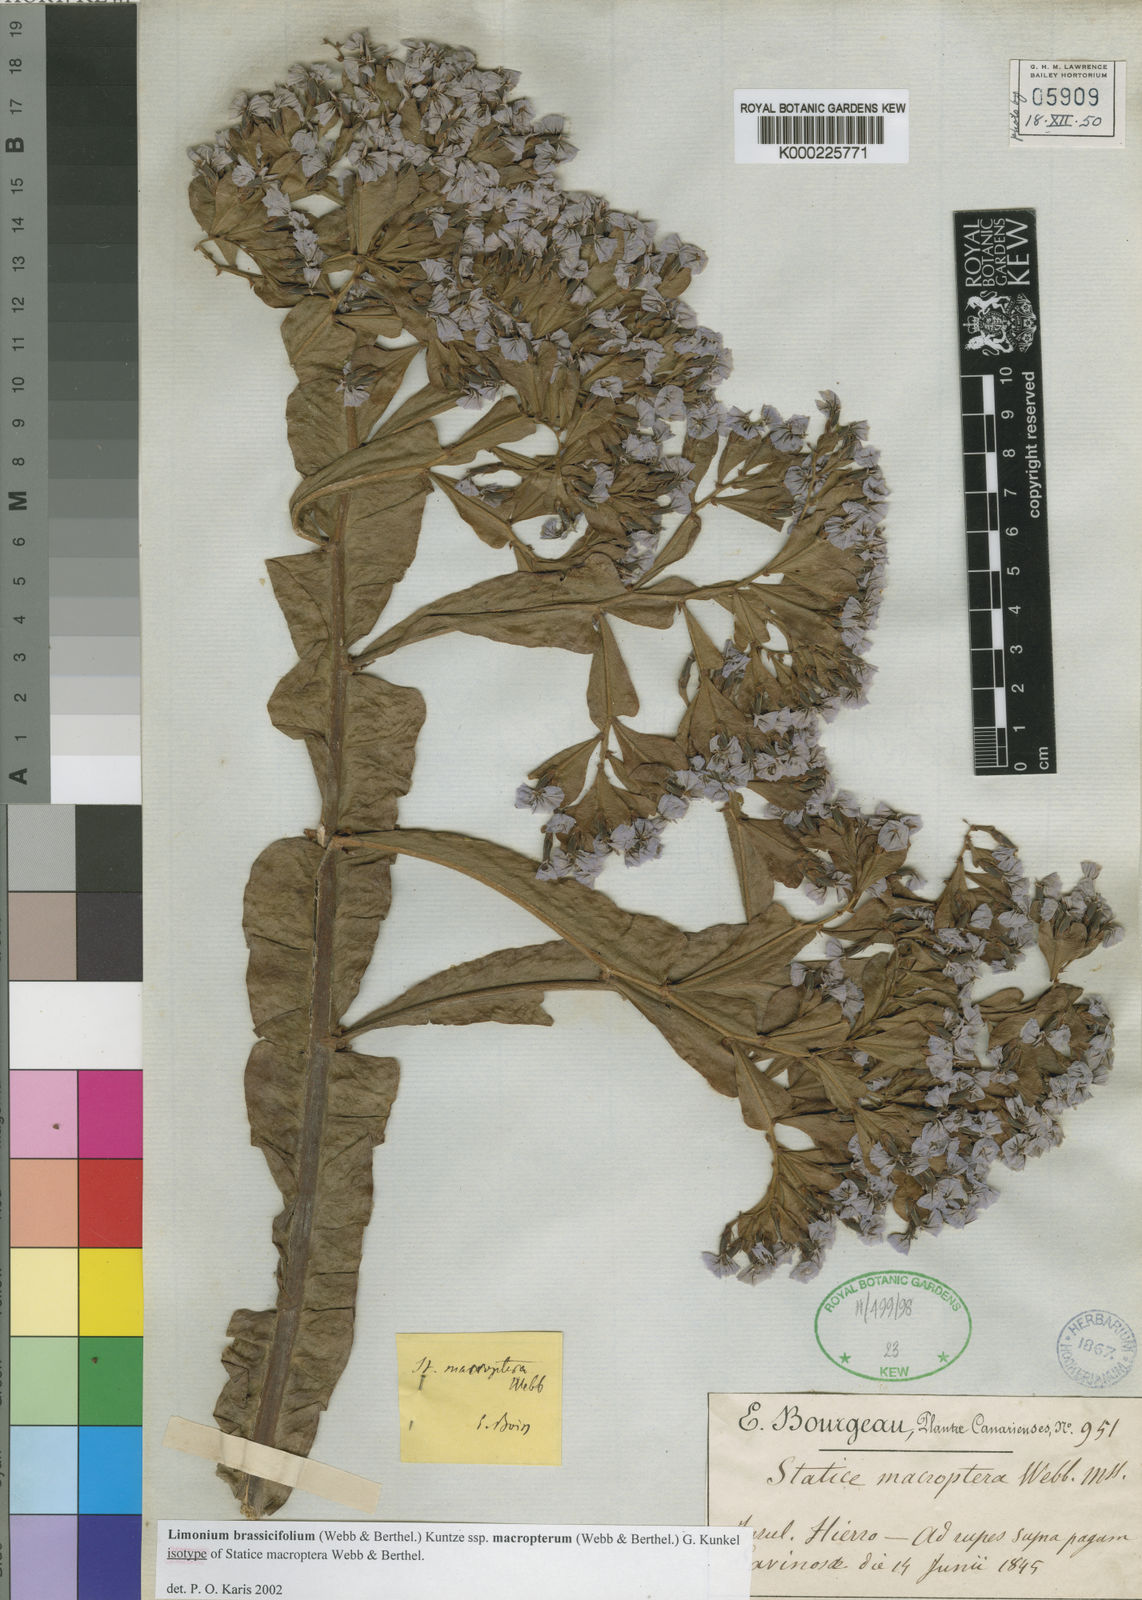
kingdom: Plantae
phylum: Tracheophyta
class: Magnoliopsida
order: Caryophyllales
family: Plumbaginaceae
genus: Limonium
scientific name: Limonium macropterum
